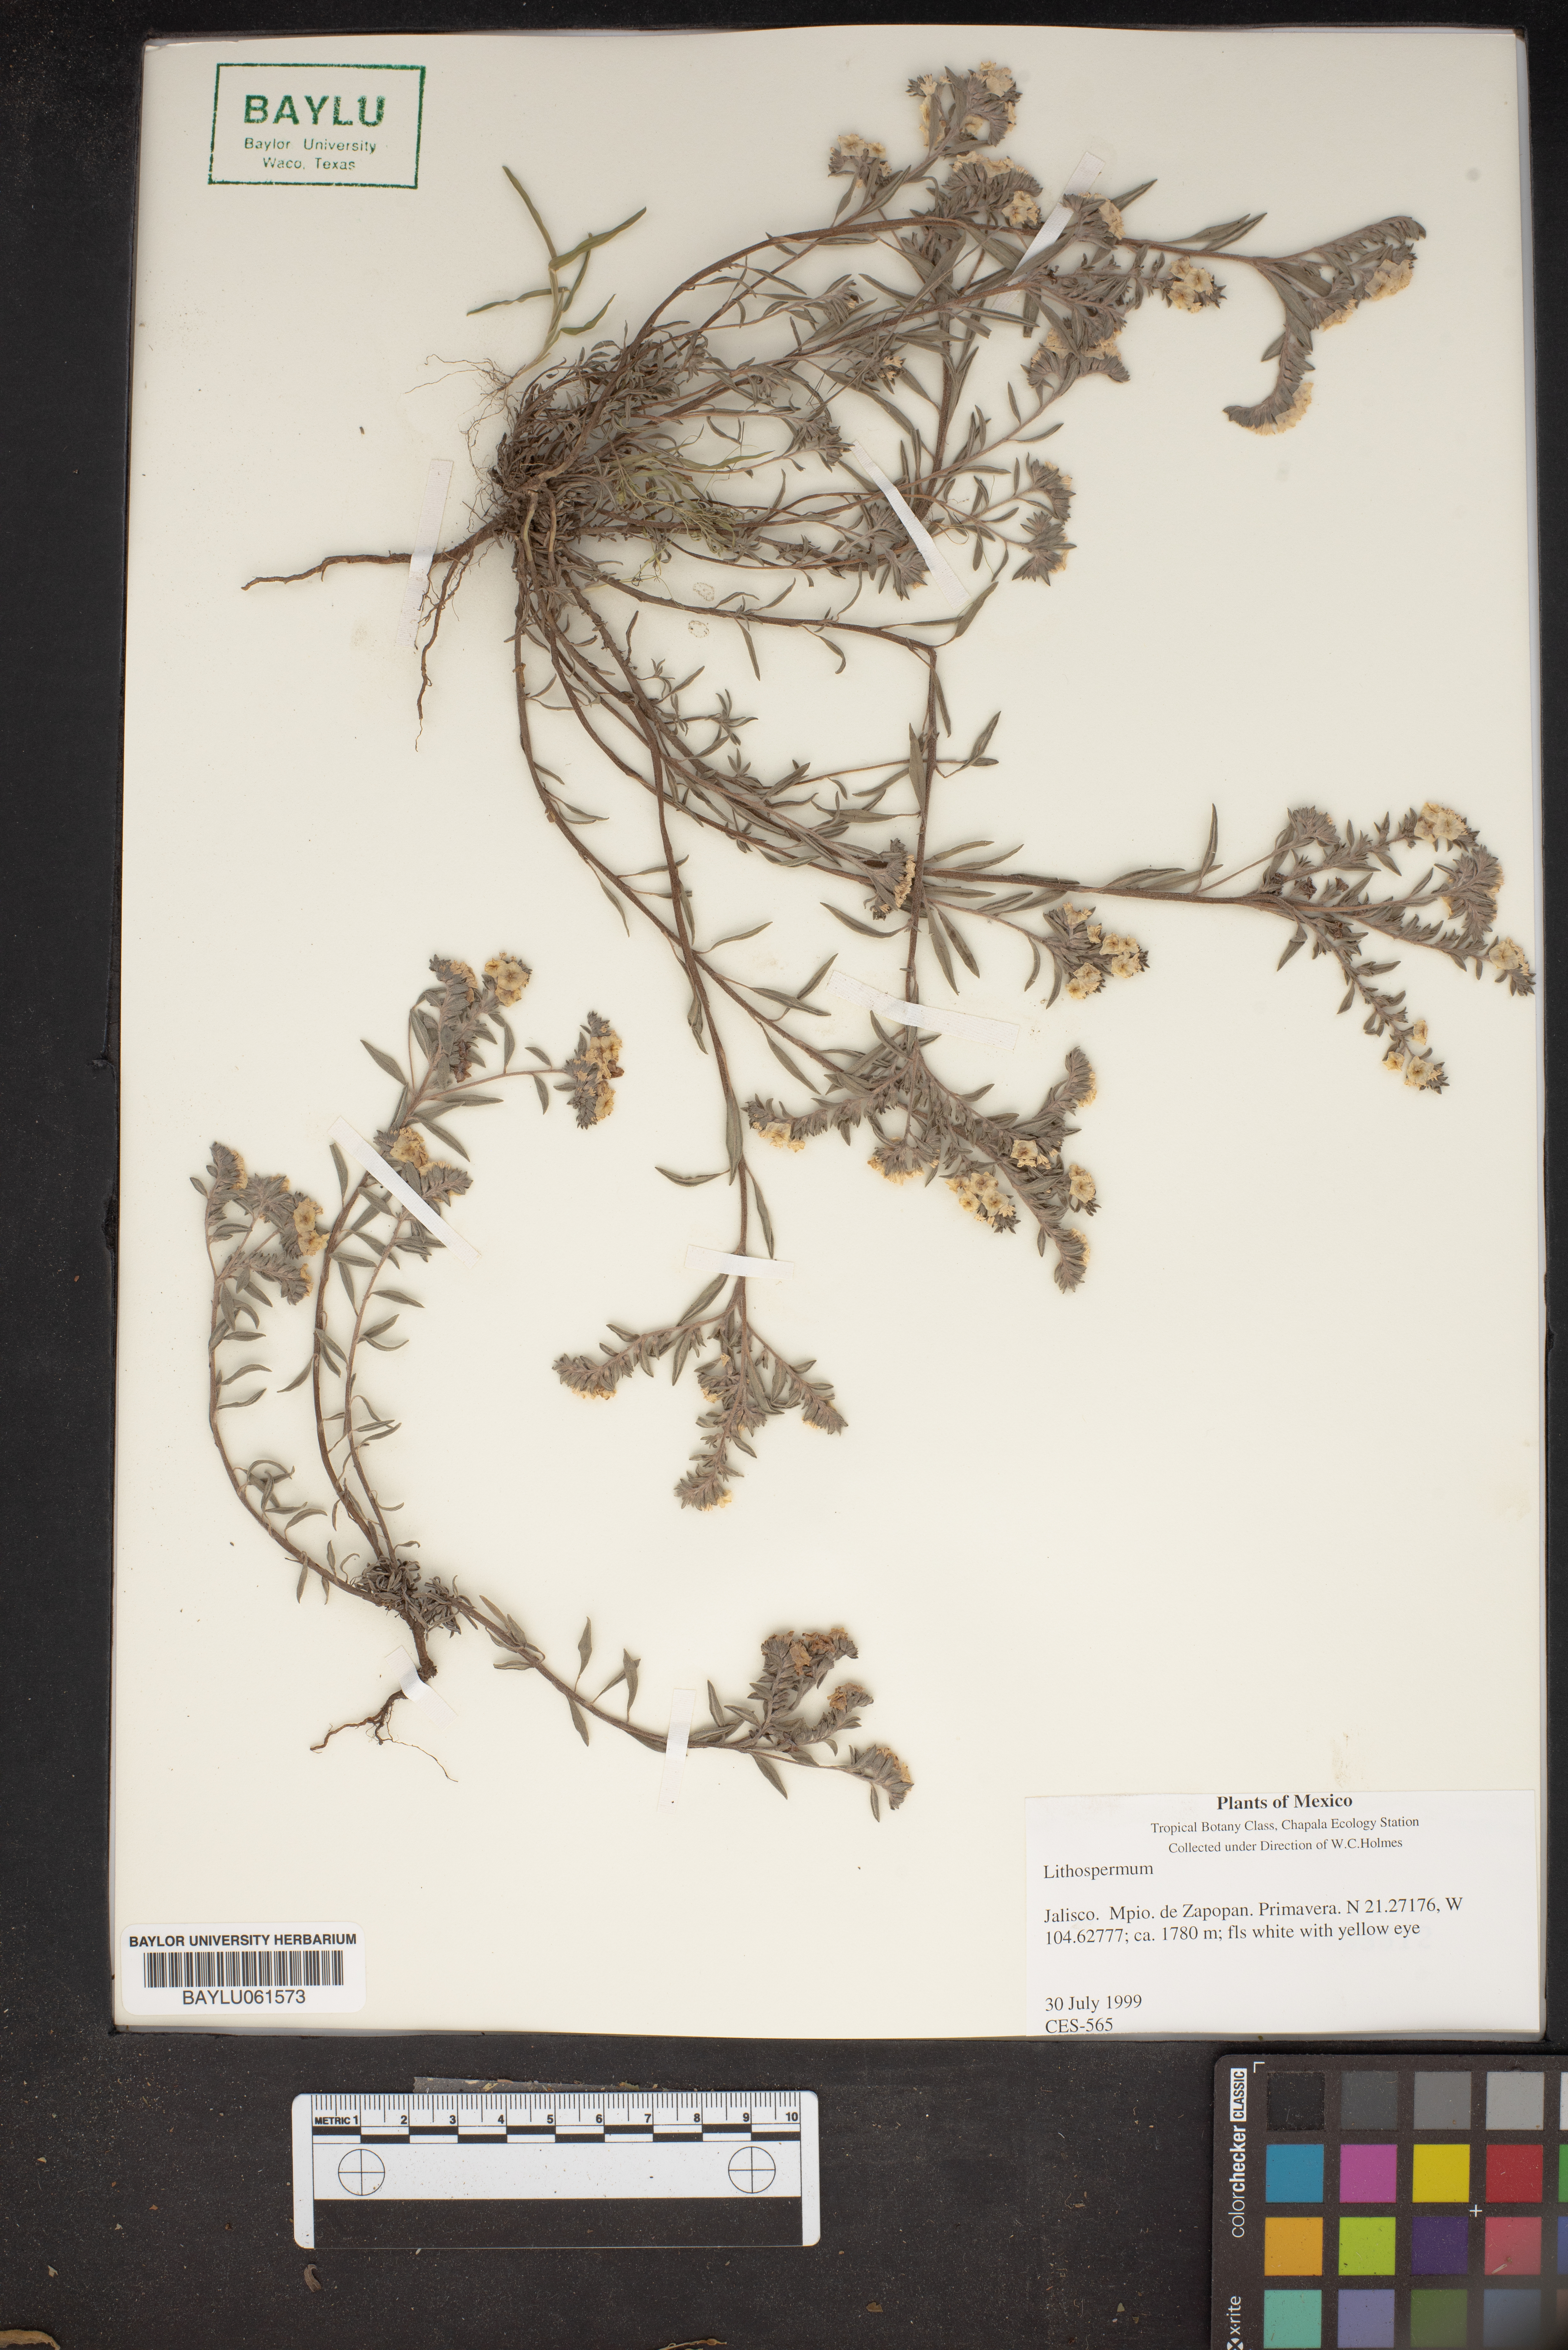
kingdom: Plantae
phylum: Tracheophyta
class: Magnoliopsida
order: Boraginales
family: Boraginaceae
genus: Lithospermum
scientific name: Lithospermum
